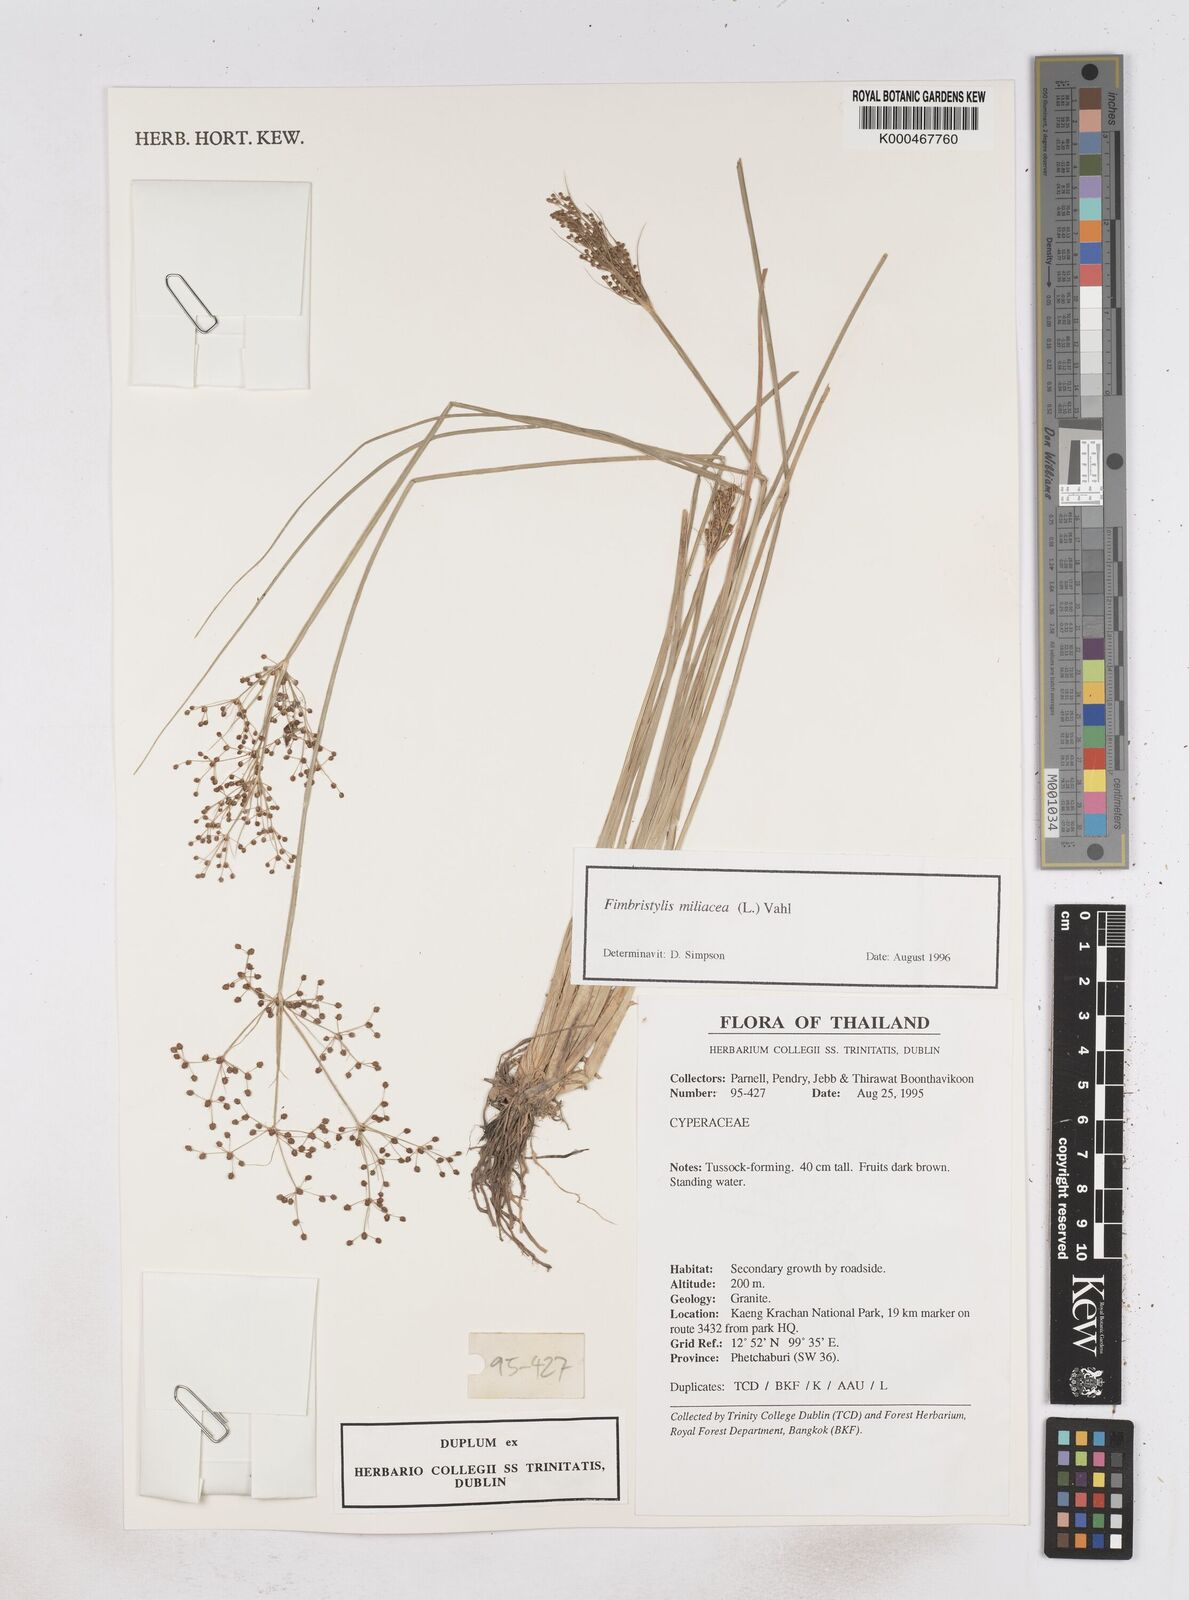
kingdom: Plantae
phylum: Tracheophyta
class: Liliopsida
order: Poales
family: Cyperaceae
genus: Fimbristylis
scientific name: Fimbristylis quinquangularis
